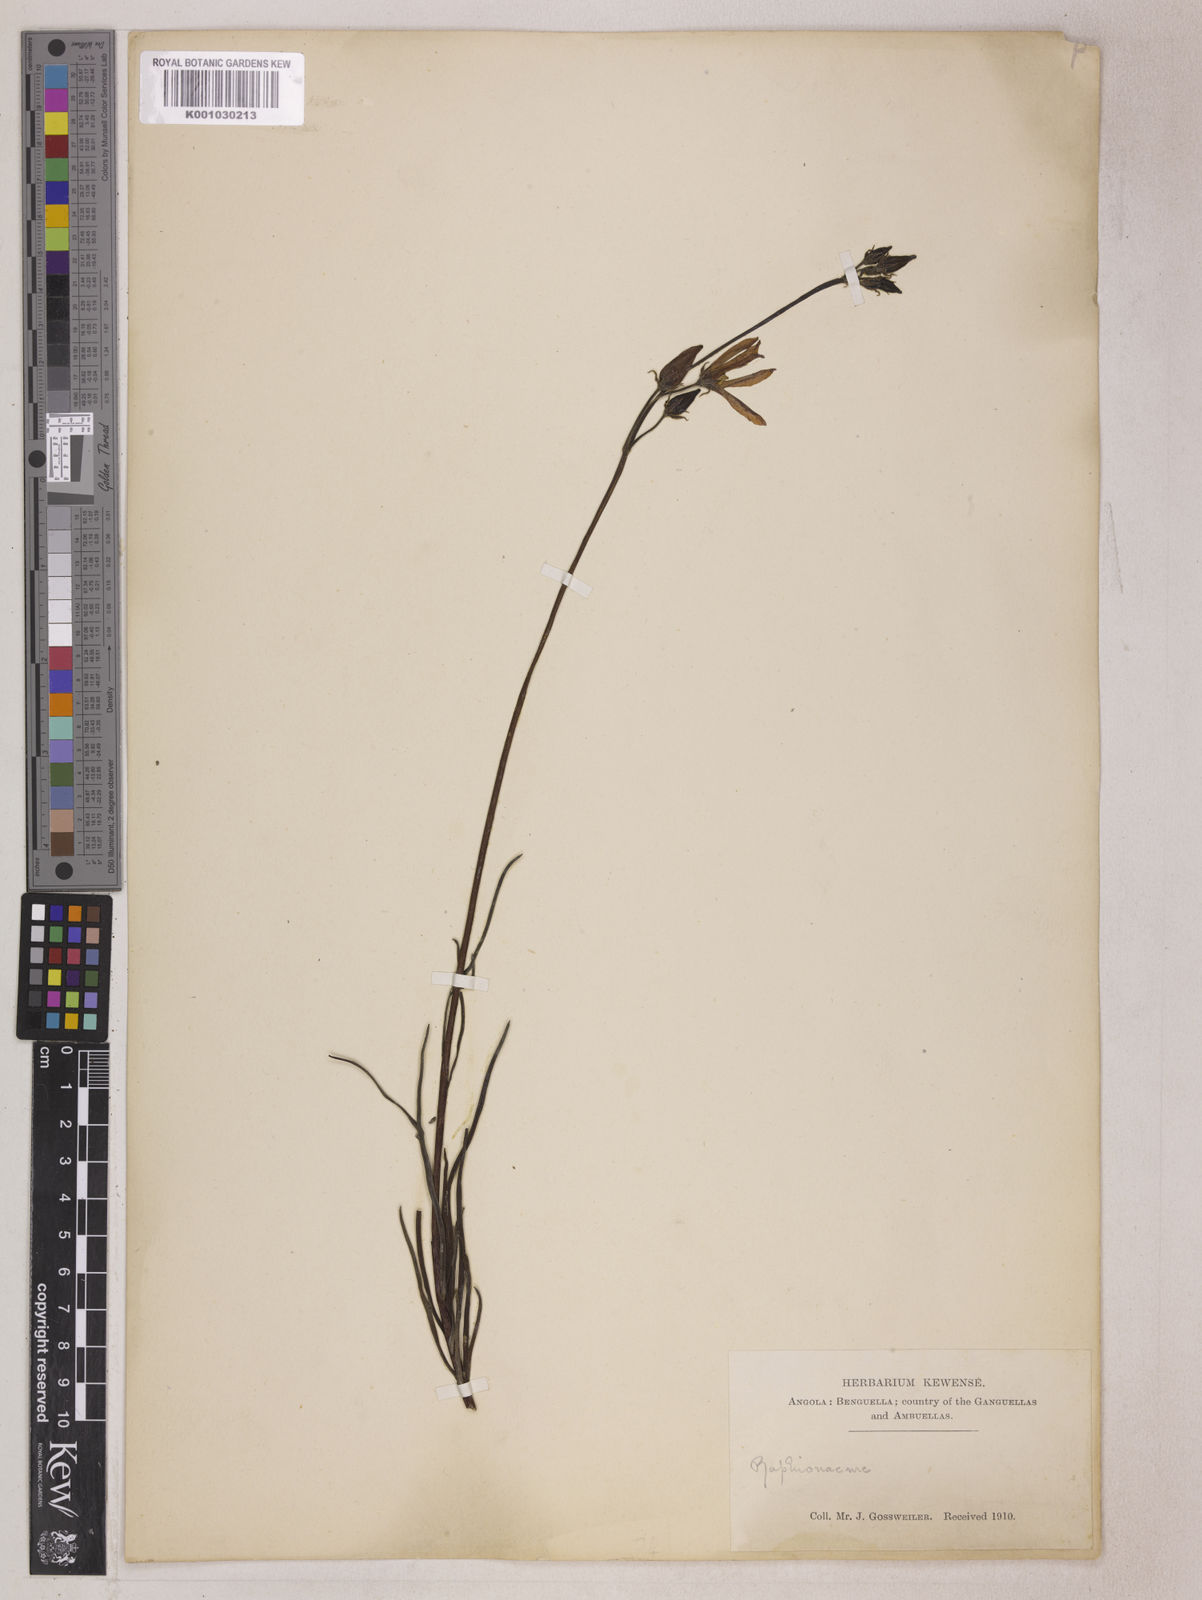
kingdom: Plantae
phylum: Tracheophyta
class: Magnoliopsida
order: Gentianales
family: Apocynaceae
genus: Raphionacme
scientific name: Raphionacme linearis
